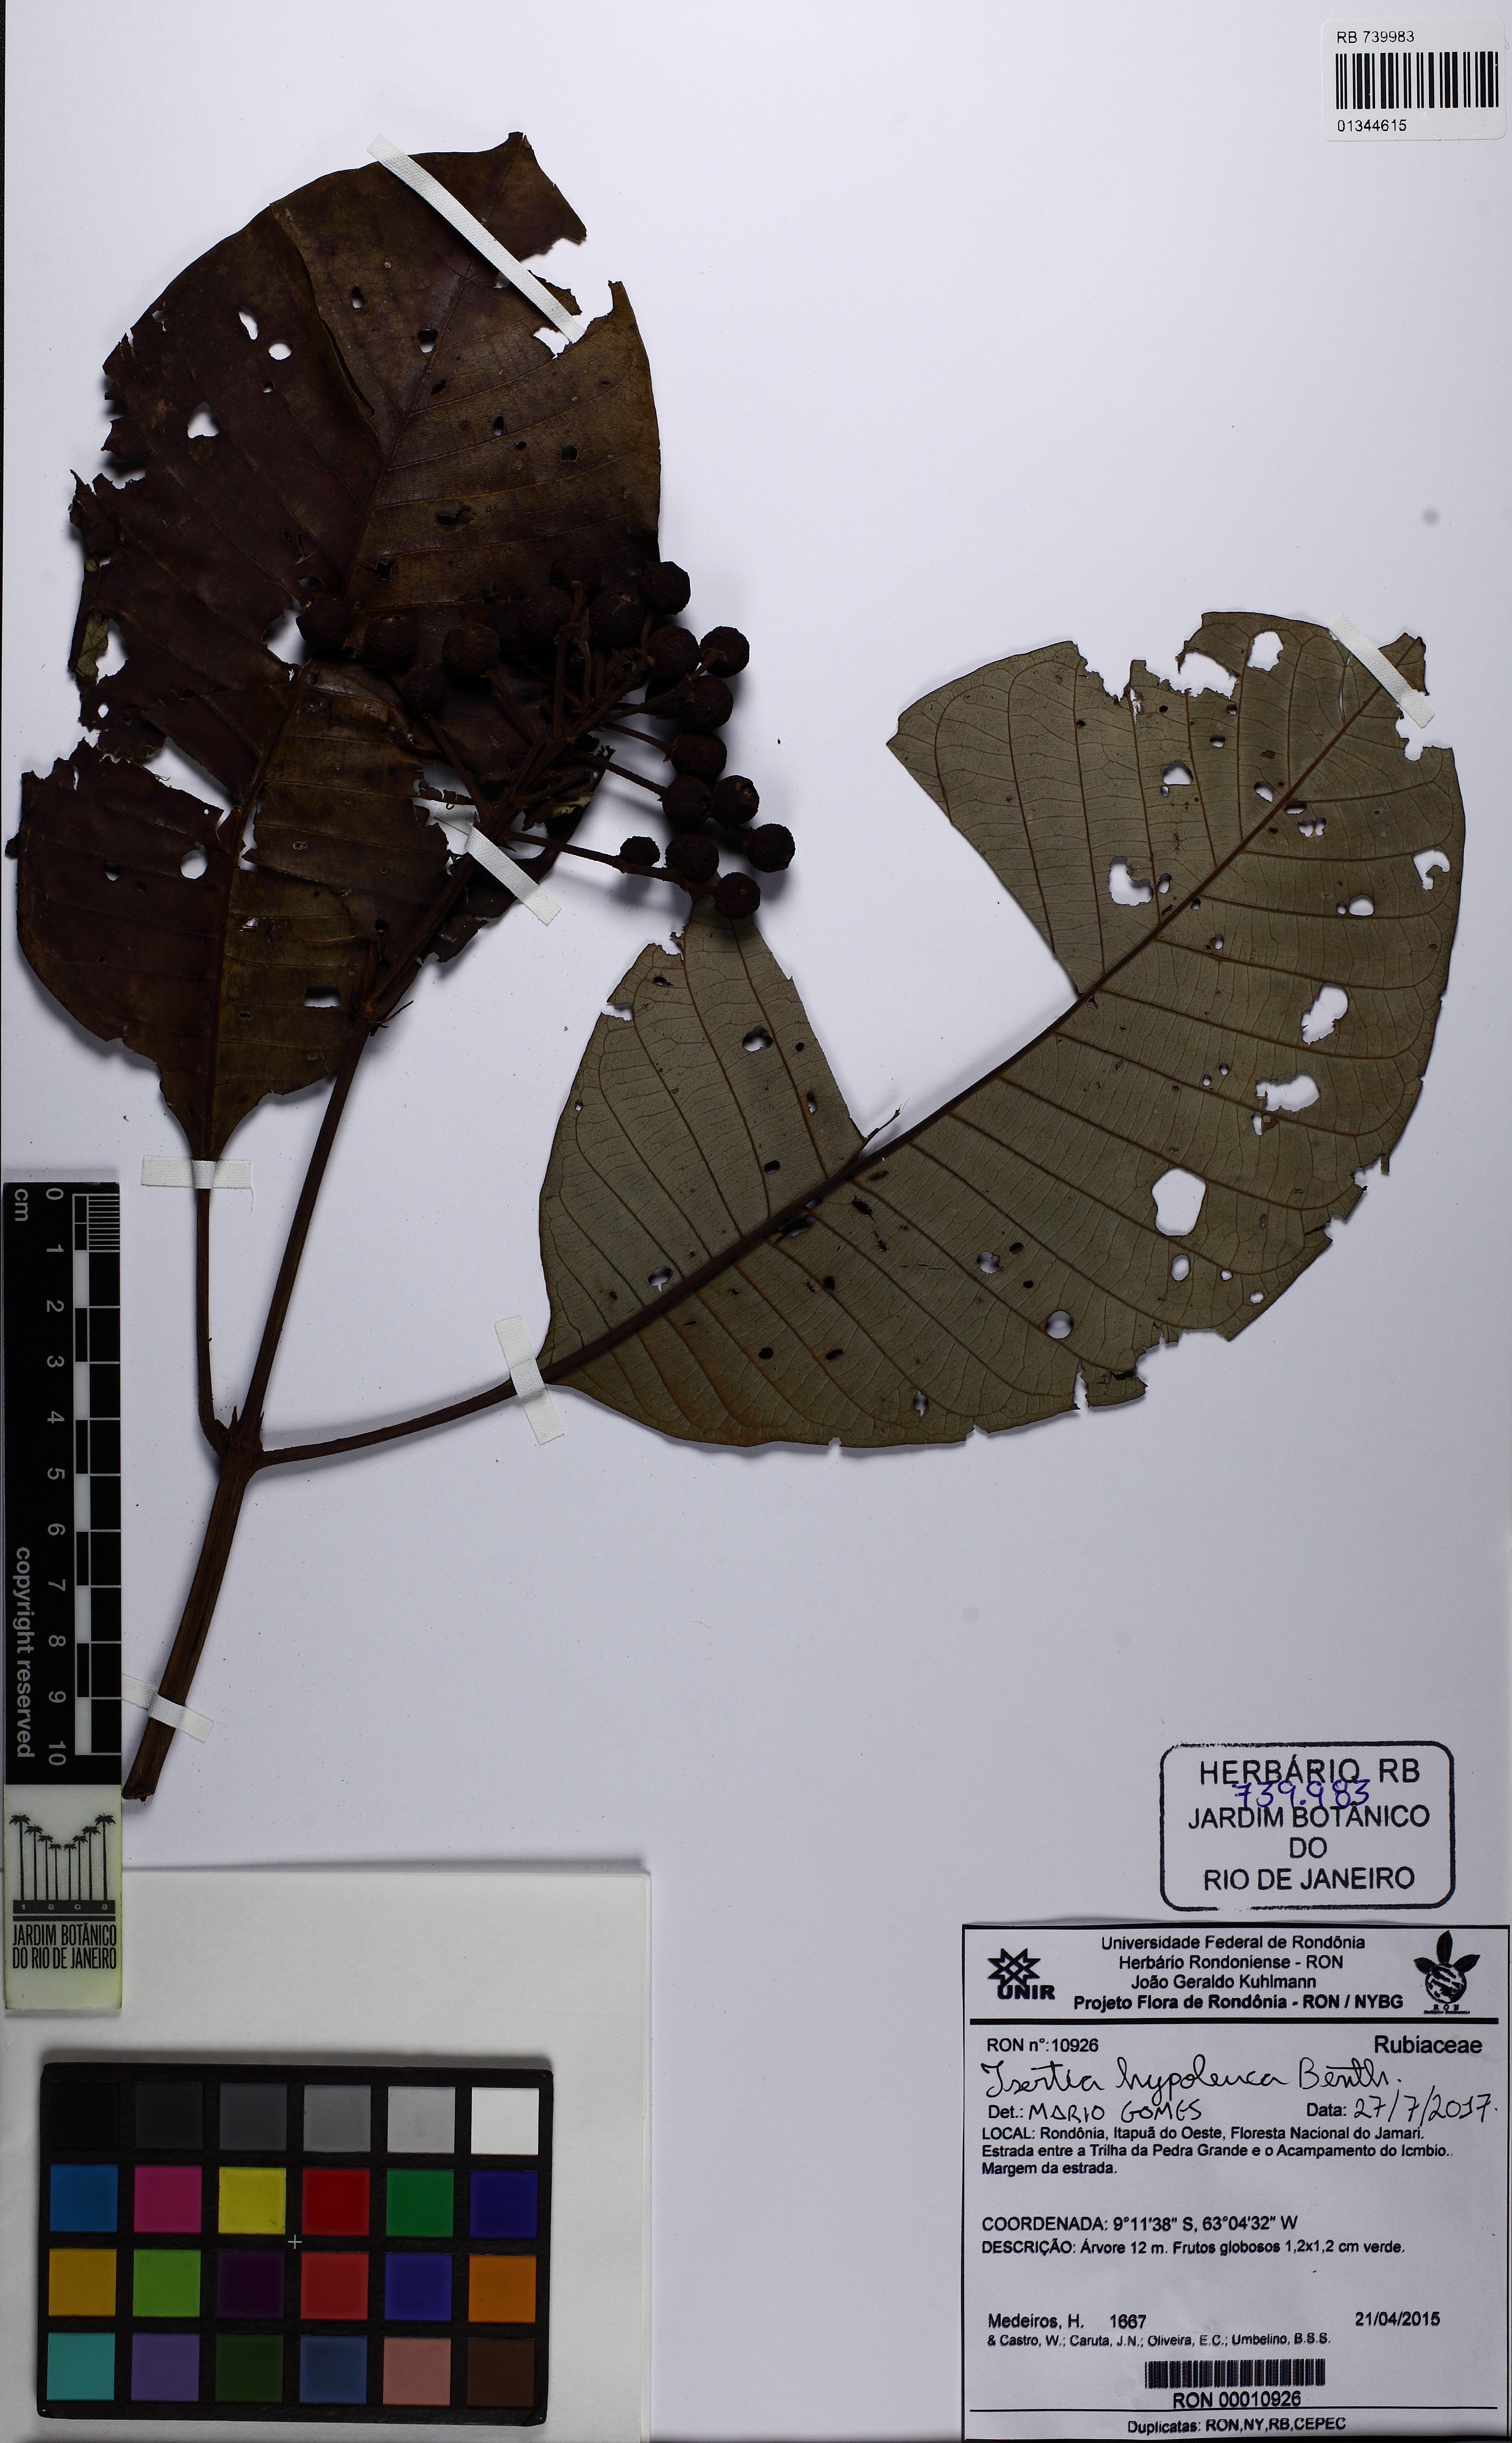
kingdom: Plantae
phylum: Tracheophyta
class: Magnoliopsida
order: Gentianales
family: Rubiaceae
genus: Isertia
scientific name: Isertia hypoleuca
